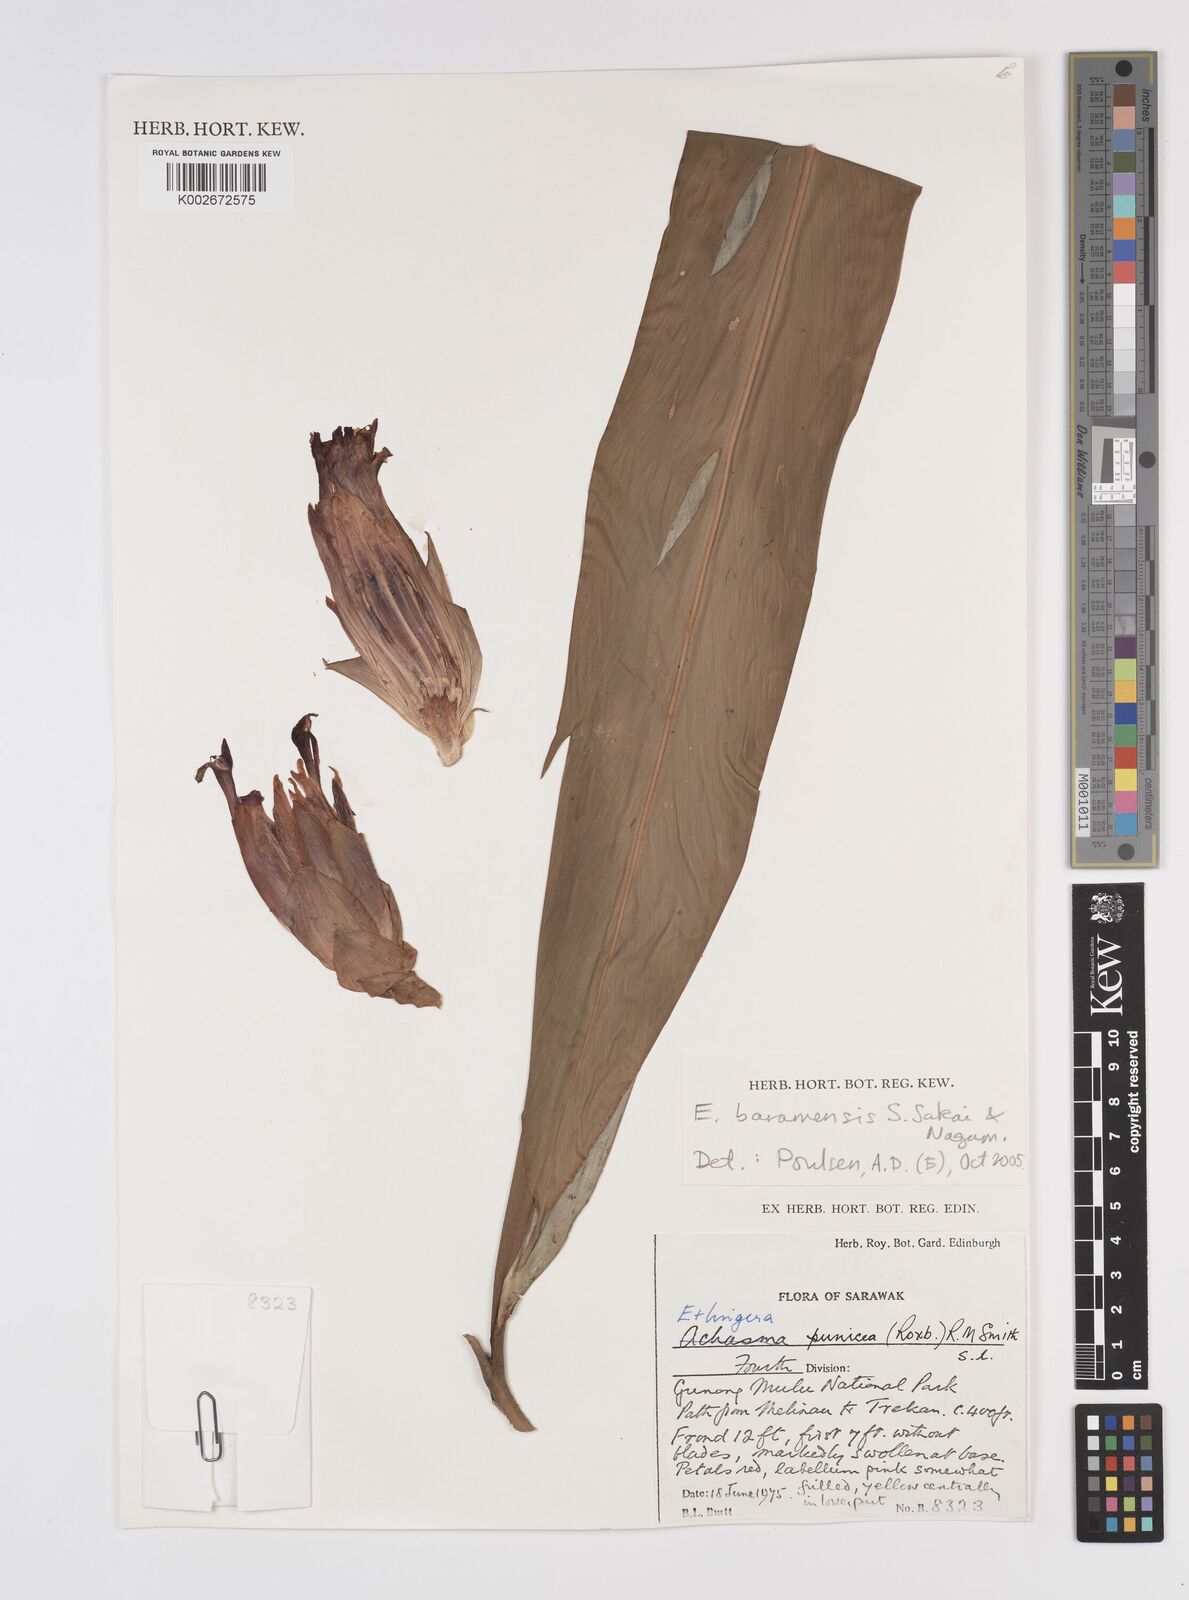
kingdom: Plantae
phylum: Tracheophyta
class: Liliopsida
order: Zingiberales
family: Zingiberaceae
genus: Etlingera
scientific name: Etlingera baramensis
